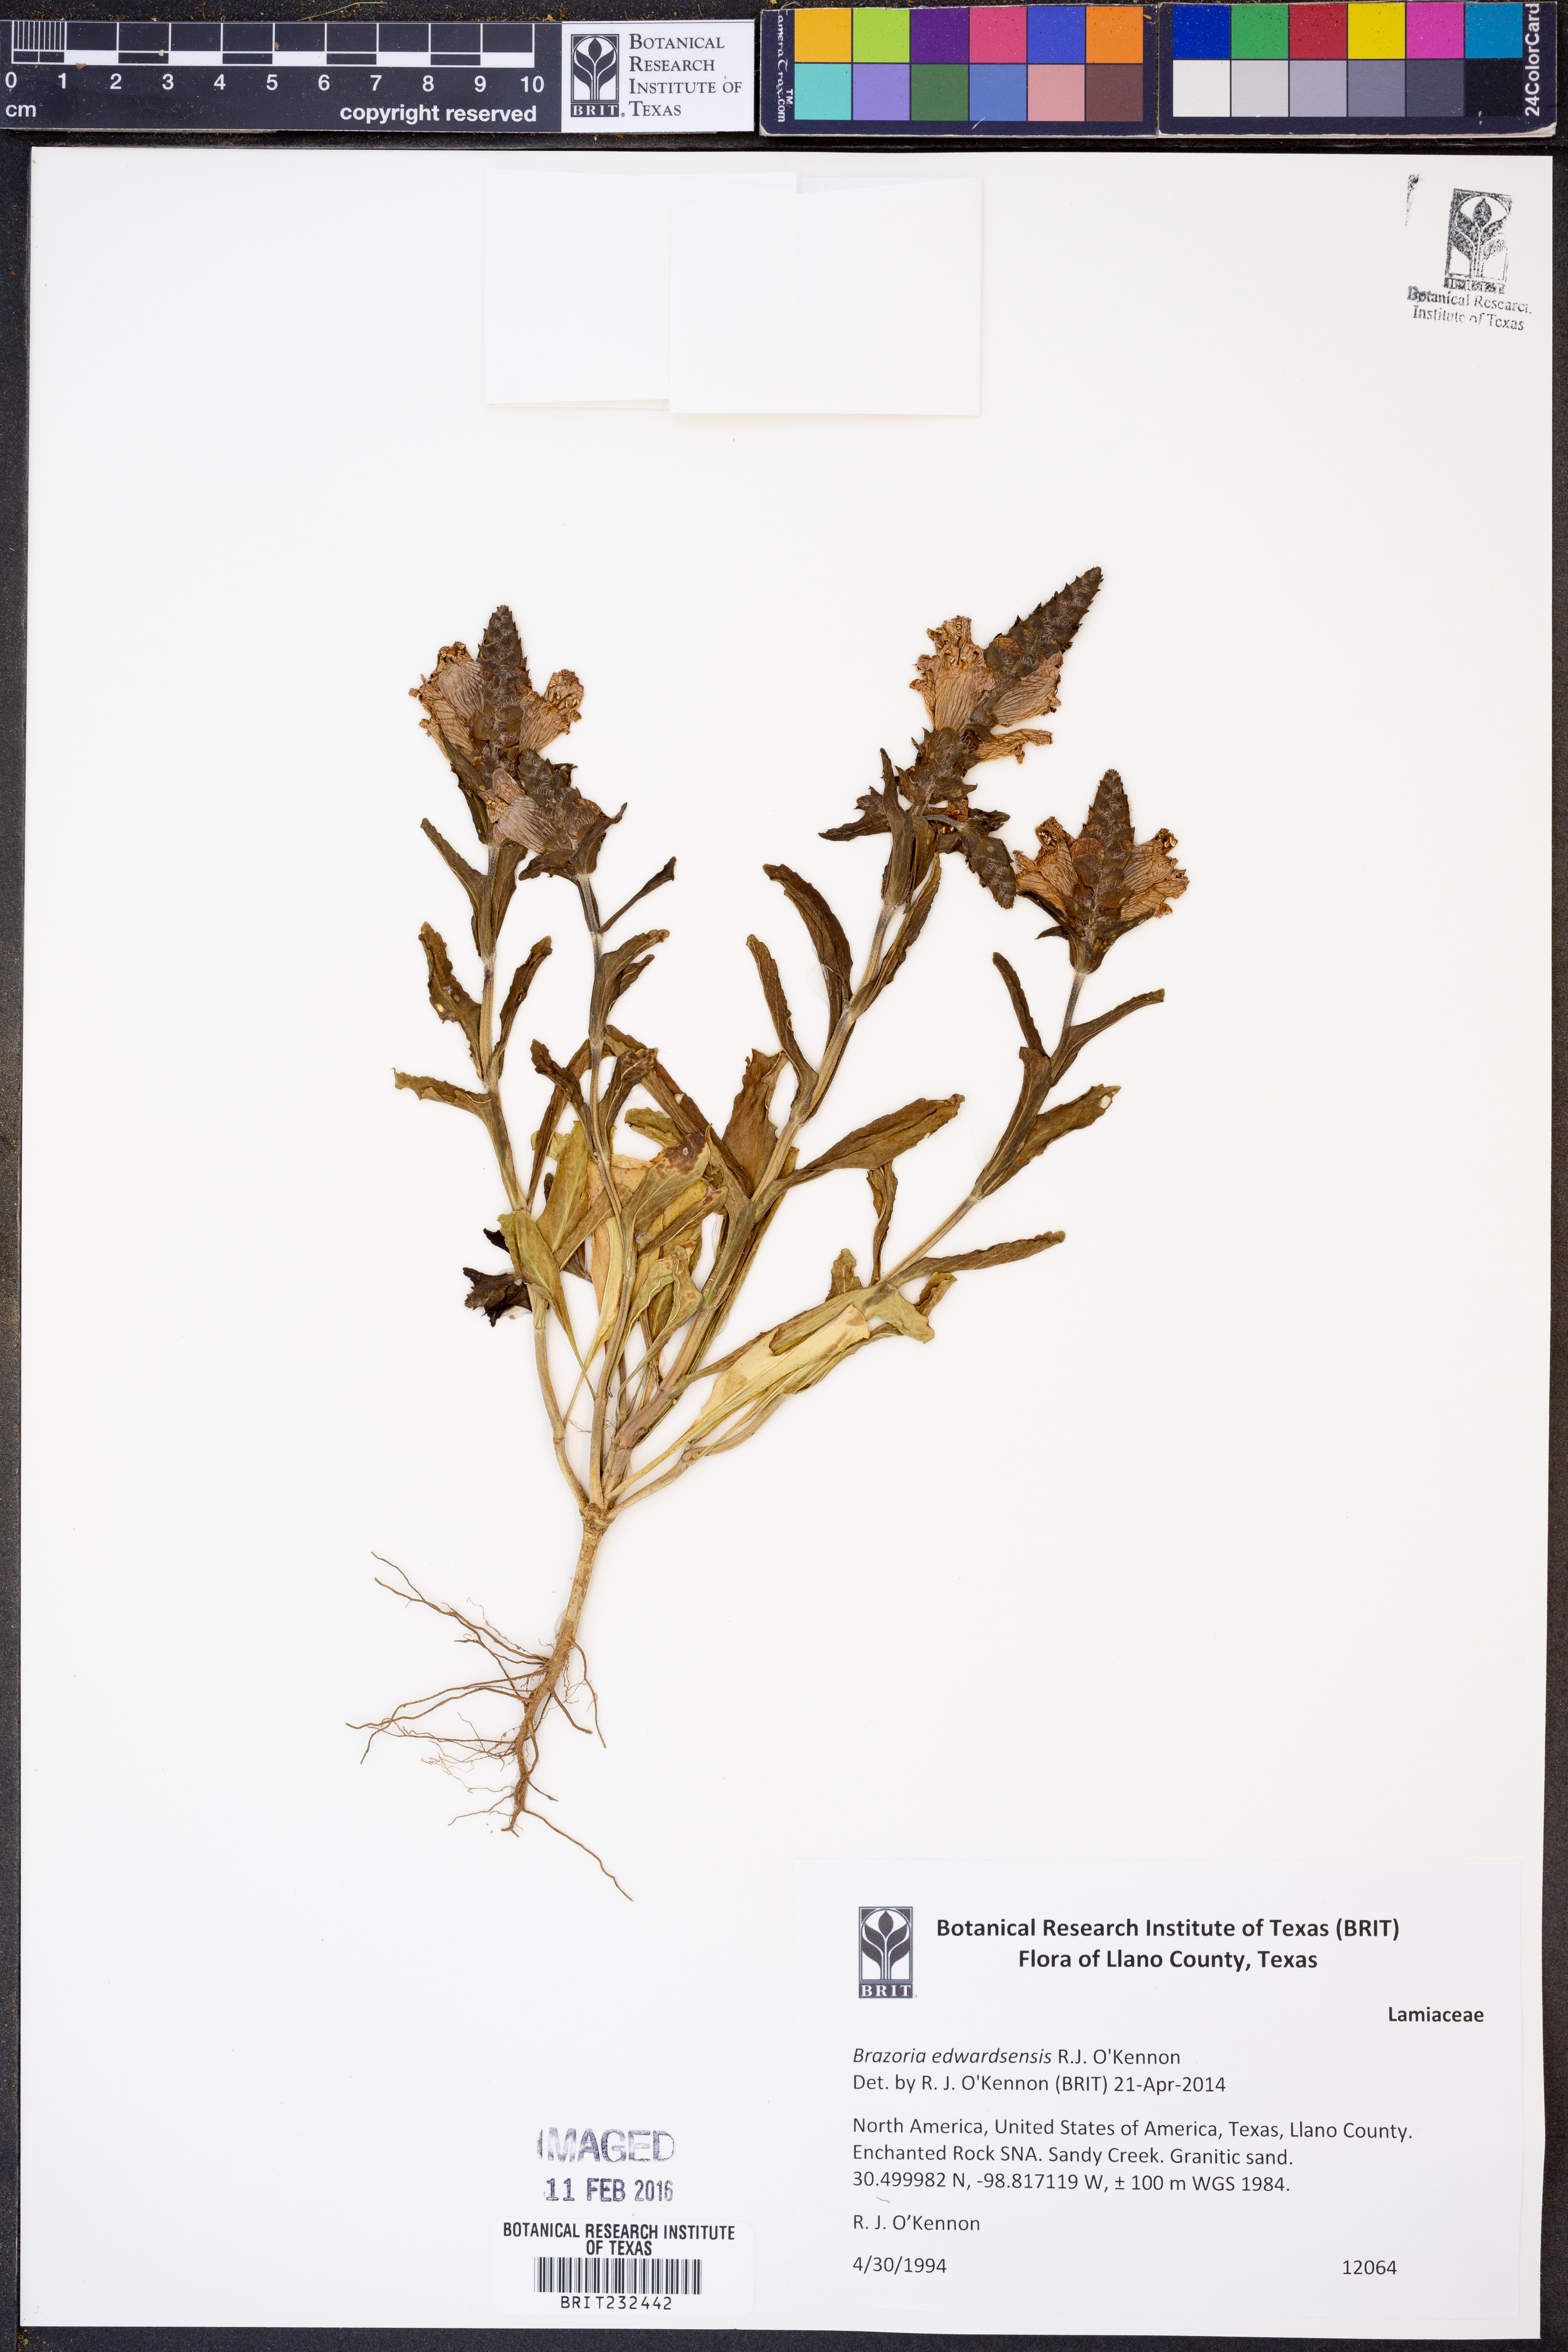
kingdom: Plantae
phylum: Tracheophyta
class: Magnoliopsida
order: Lamiales
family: Lamiaceae
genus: Brazoria
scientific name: Brazoria
